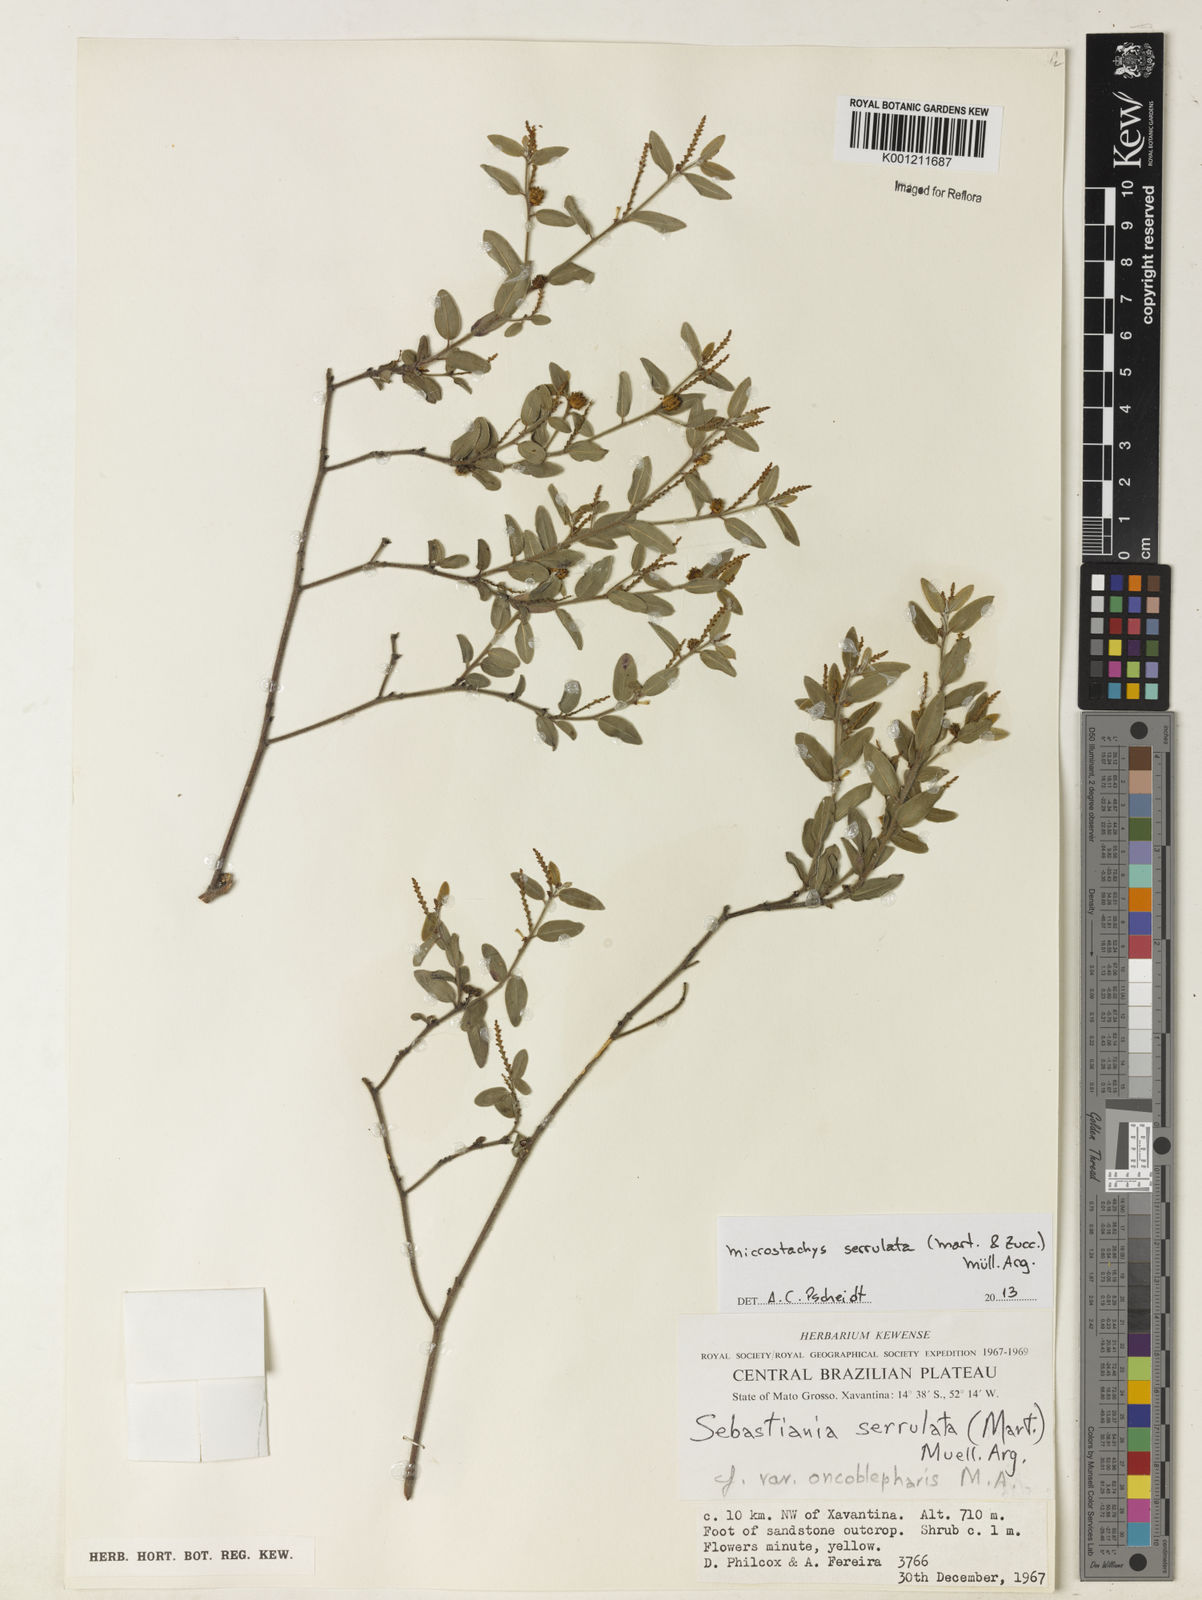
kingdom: Plantae
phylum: Tracheophyta
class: Magnoliopsida
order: Malpighiales
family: Euphorbiaceae
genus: Microstachys
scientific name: Microstachys
